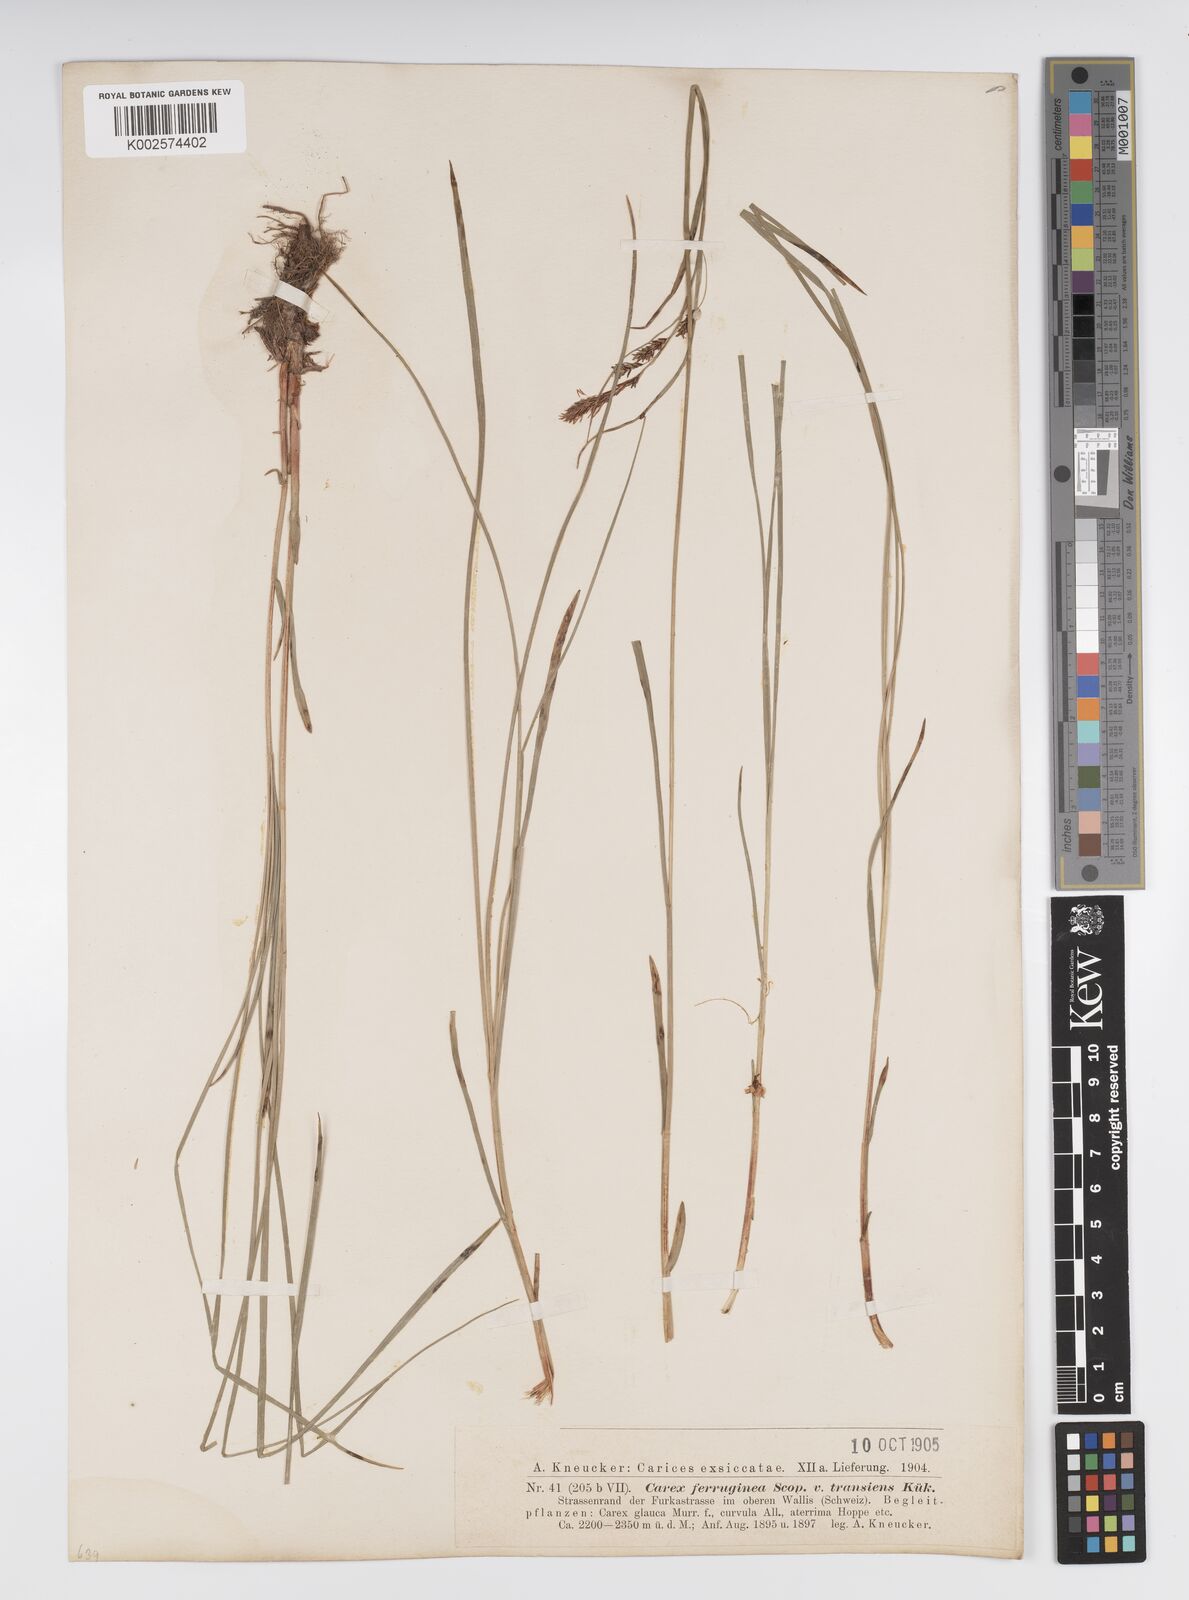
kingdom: Plantae
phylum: Tracheophyta
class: Liliopsida
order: Poales
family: Cyperaceae
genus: Carex
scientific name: Carex firma
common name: Dwarf pillow sedge
